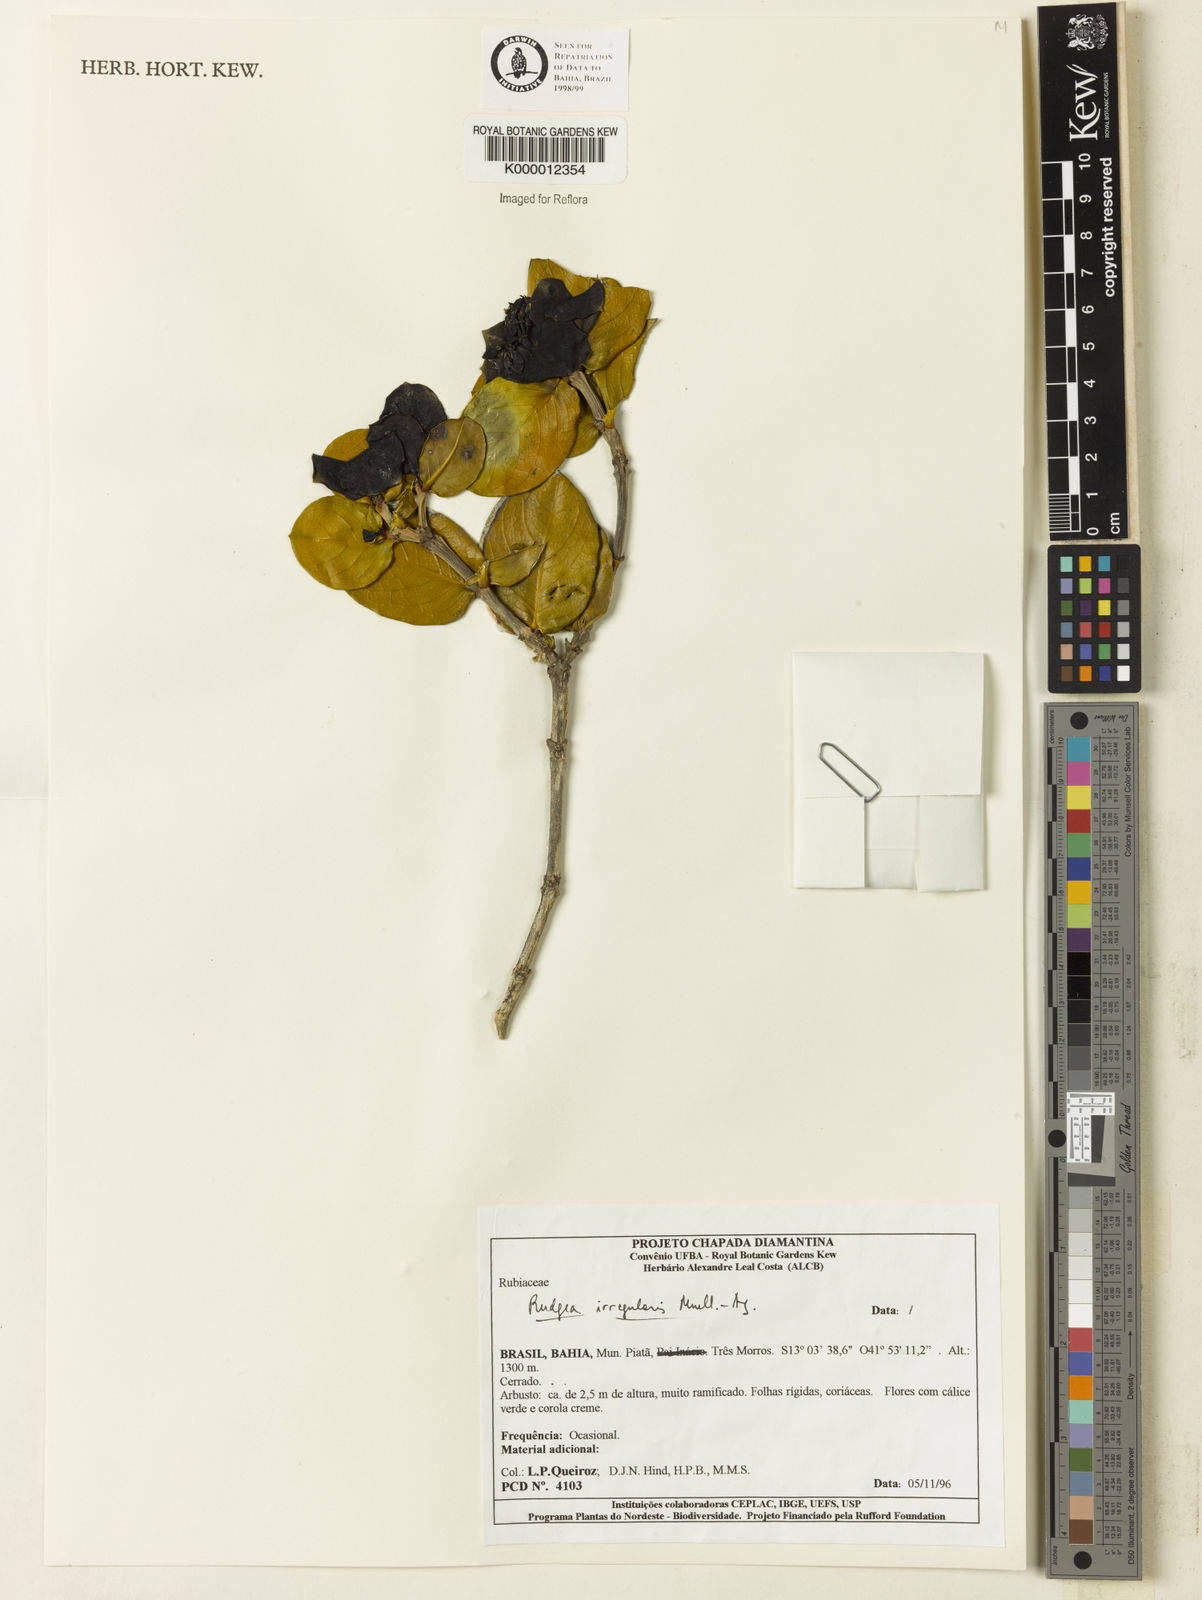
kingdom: Plantae
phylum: Tracheophyta
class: Magnoliopsida
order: Gentianales
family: Rubiaceae
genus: Rudgea
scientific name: Rudgea irregularis
